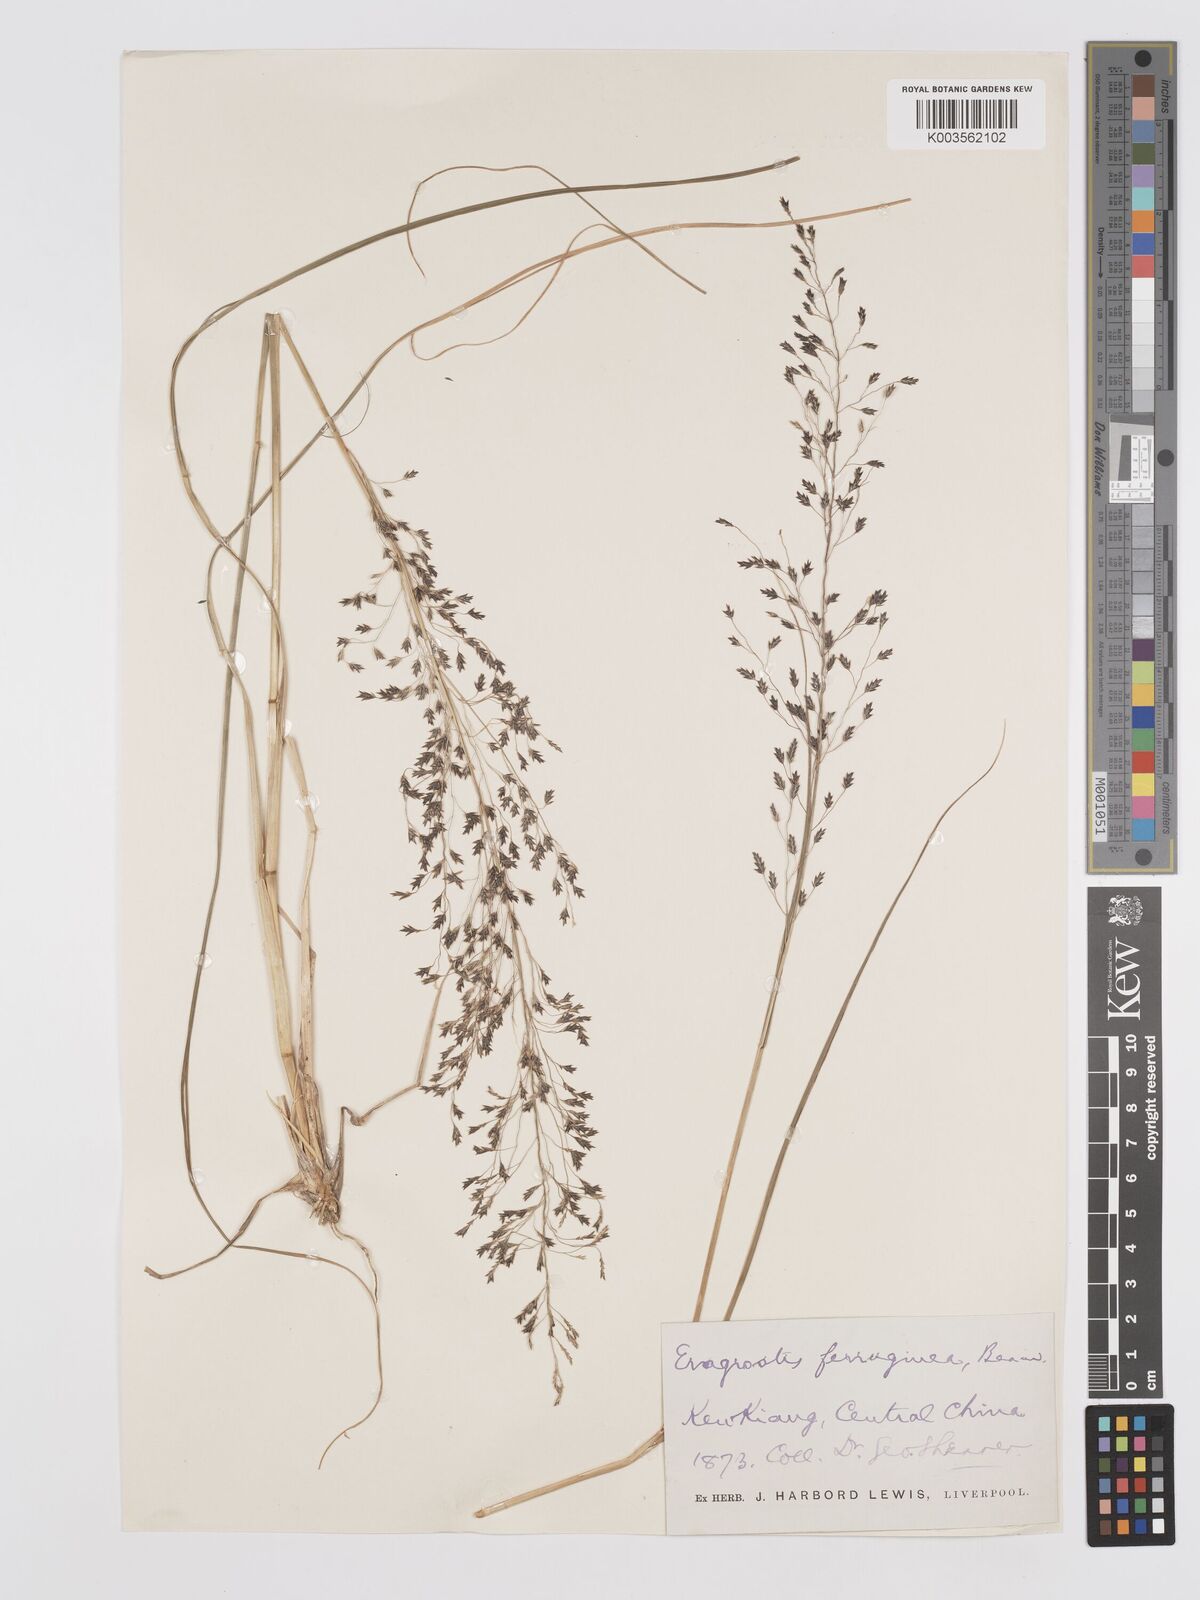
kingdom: Plantae
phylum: Tracheophyta
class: Liliopsida
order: Poales
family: Poaceae
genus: Eragrostis
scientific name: Eragrostis ferruginea
